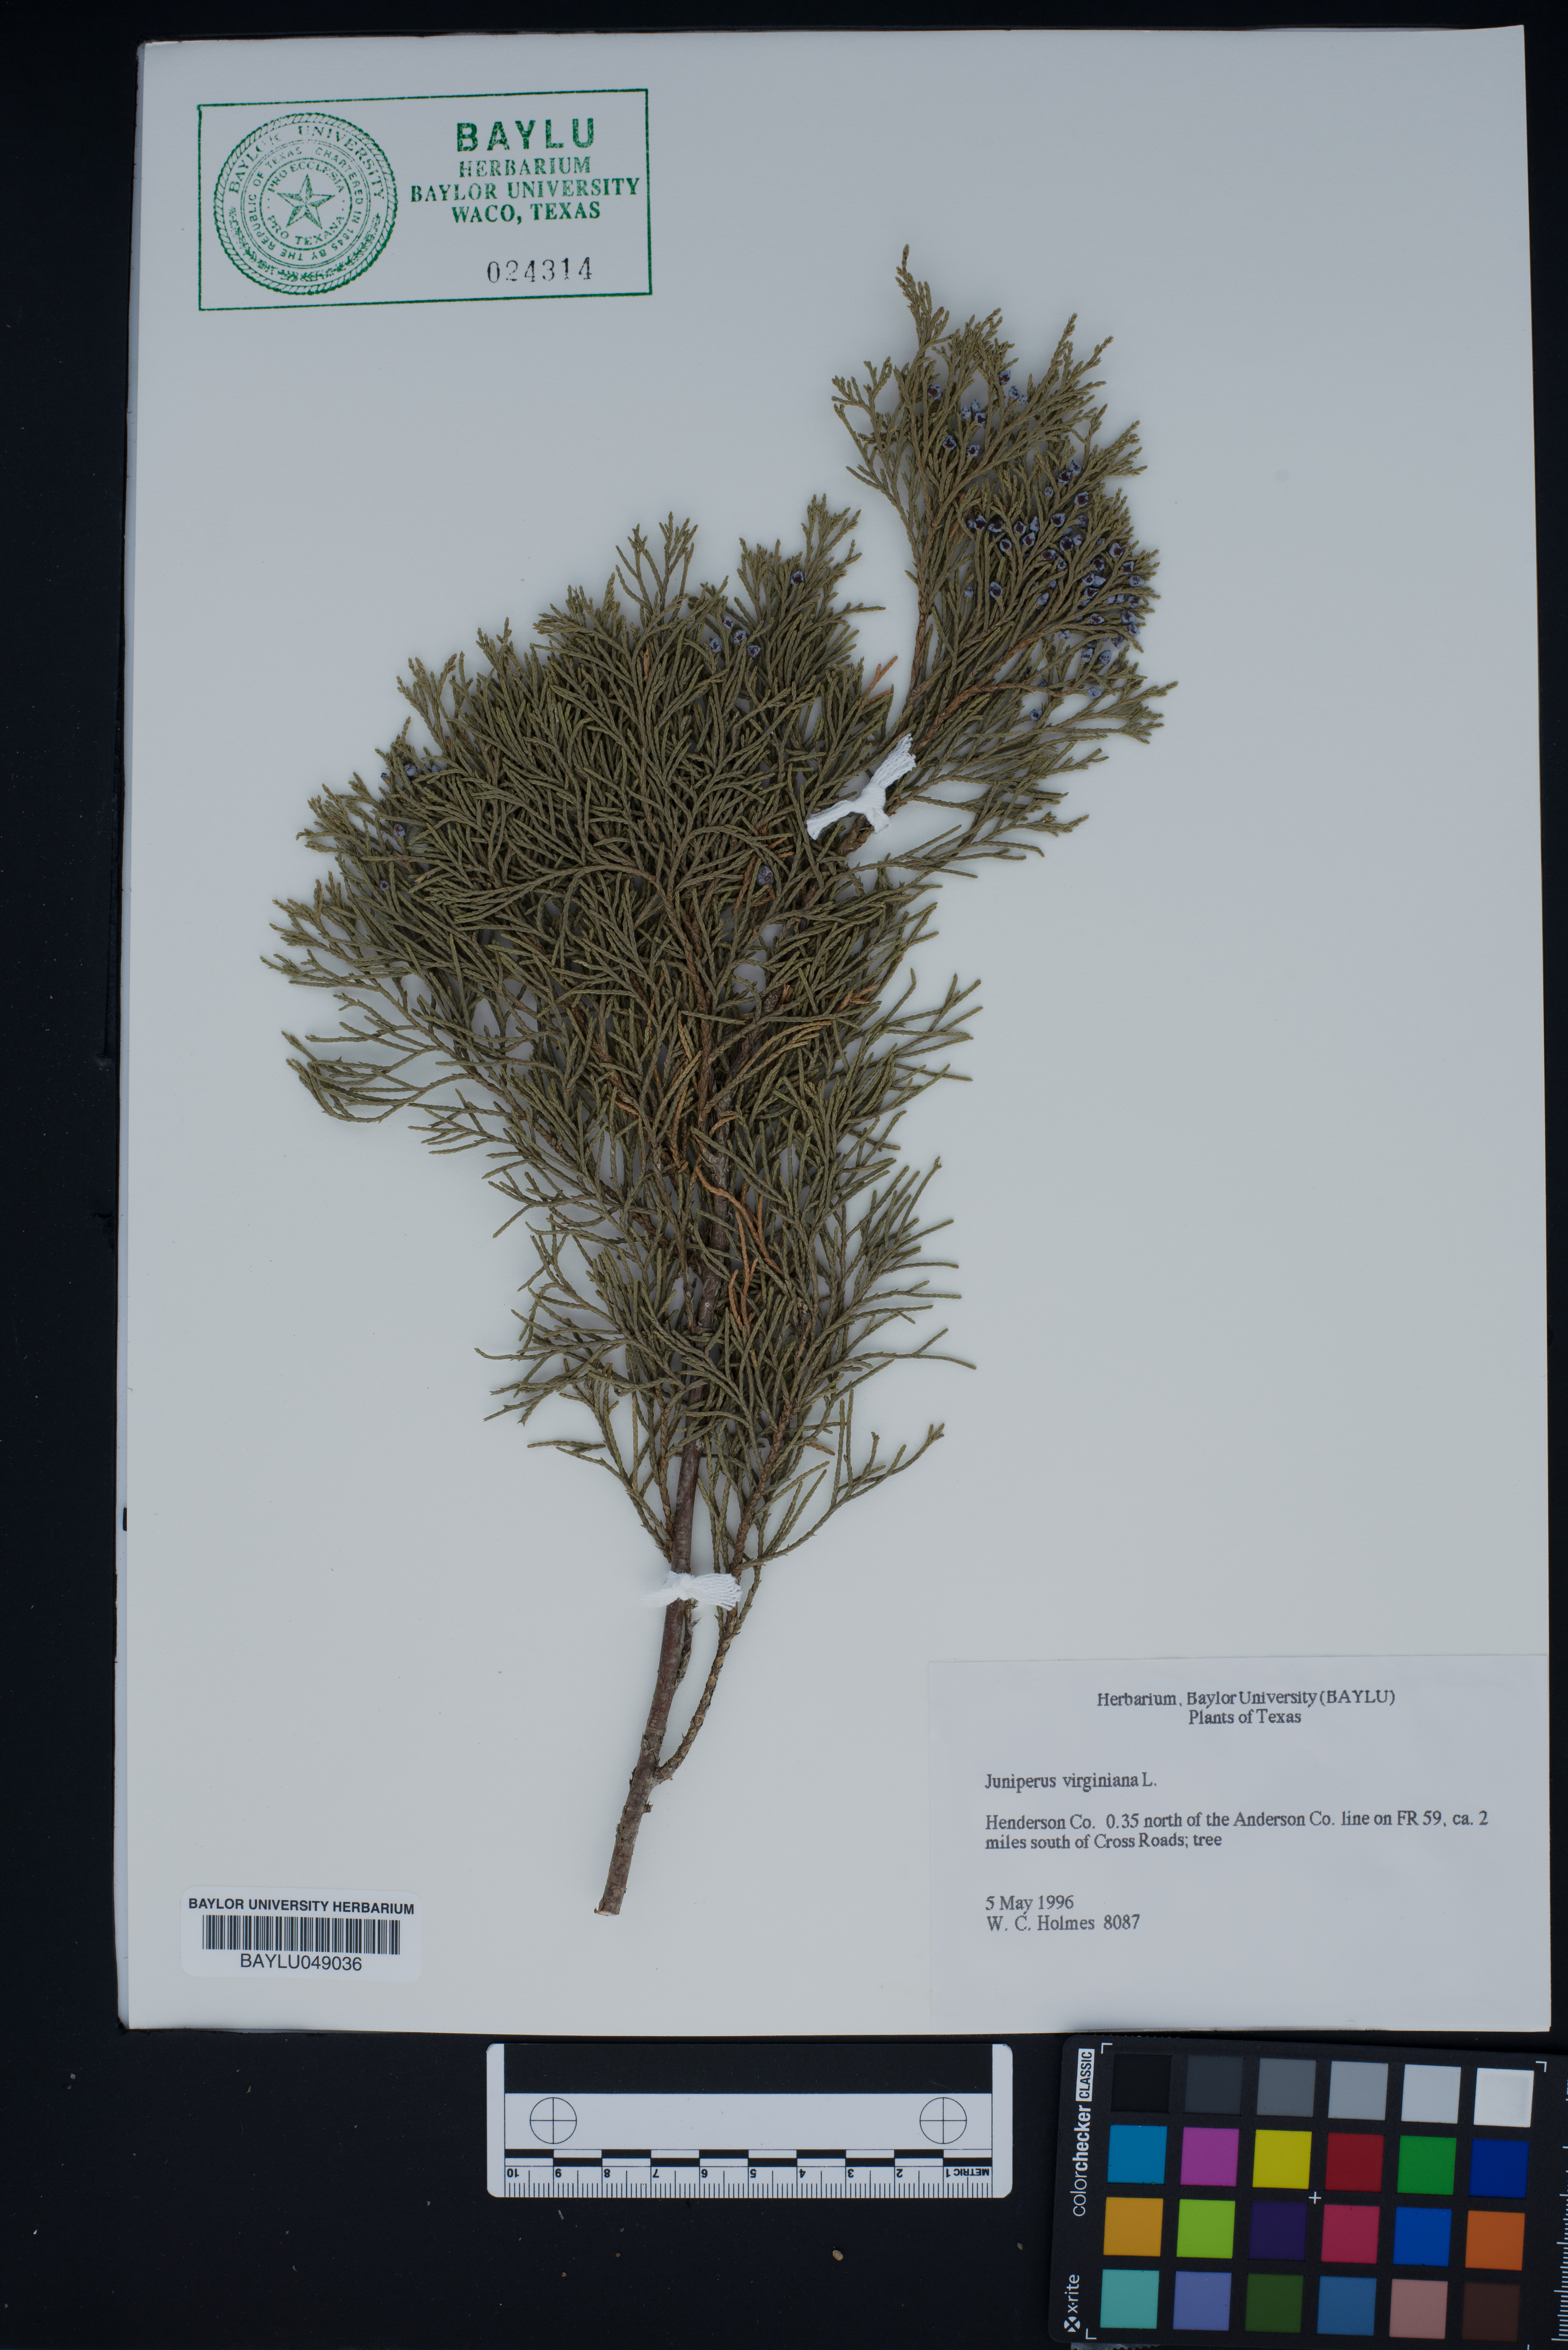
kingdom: Plantae
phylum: Tracheophyta
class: Pinopsida
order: Pinales
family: Cupressaceae
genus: Juniperus
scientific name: Juniperus virginiana
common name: Red juniper
